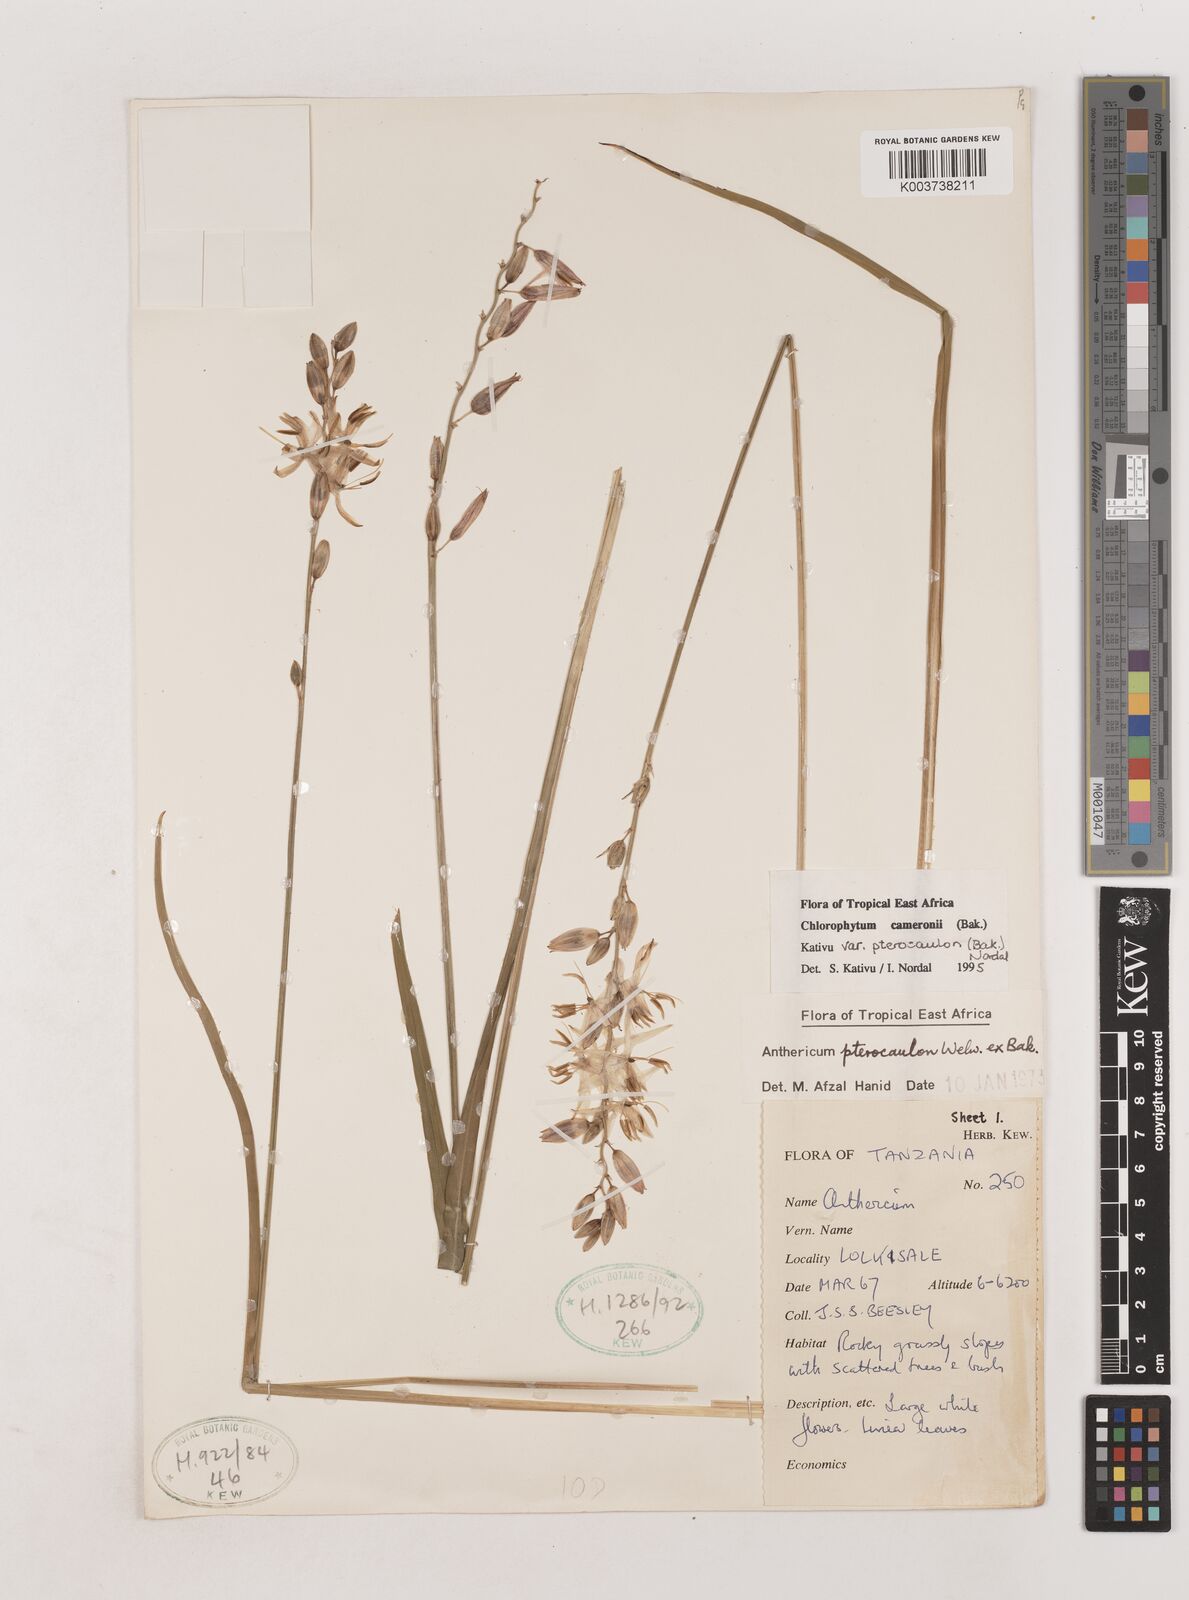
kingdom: Plantae
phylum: Tracheophyta
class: Liliopsida
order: Asparagales
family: Asparagaceae
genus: Chlorophytum
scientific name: Chlorophytum cameronii
